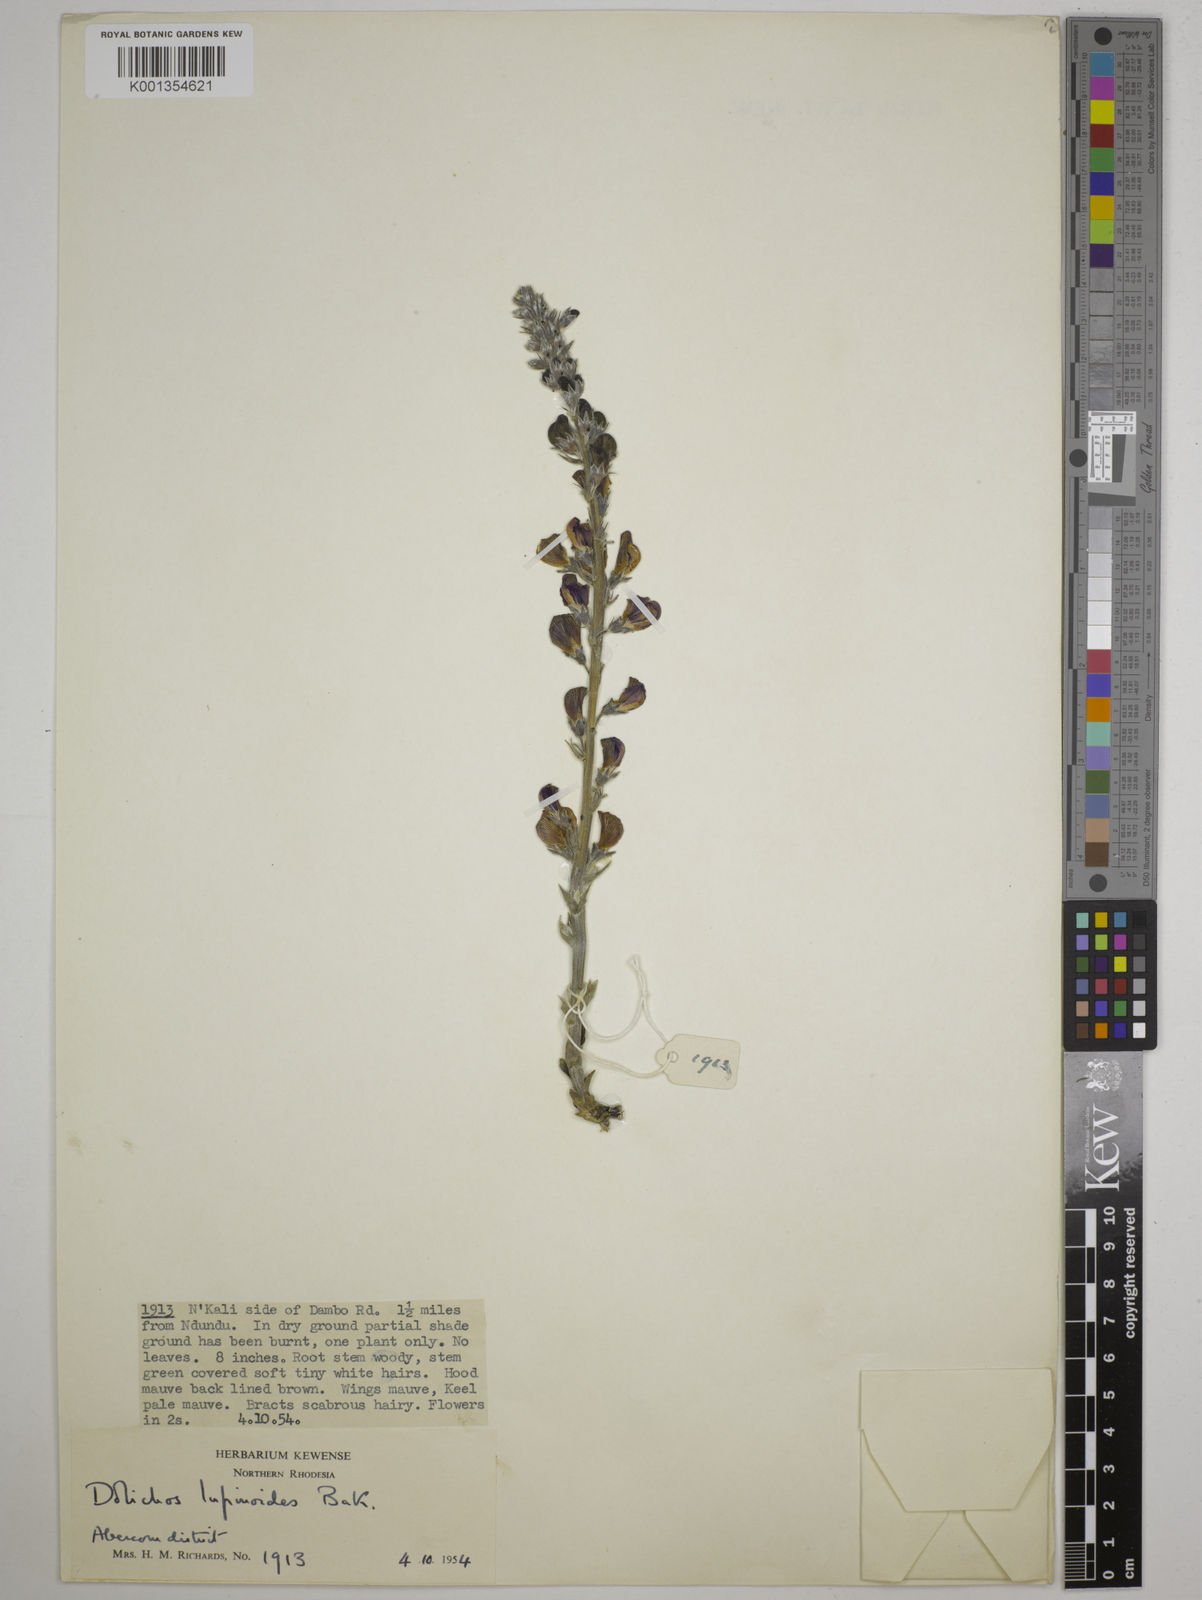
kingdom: Plantae
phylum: Tracheophyta
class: Magnoliopsida
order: Fabales
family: Fabaceae
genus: Dolichos
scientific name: Dolichos kilimandscharicus
